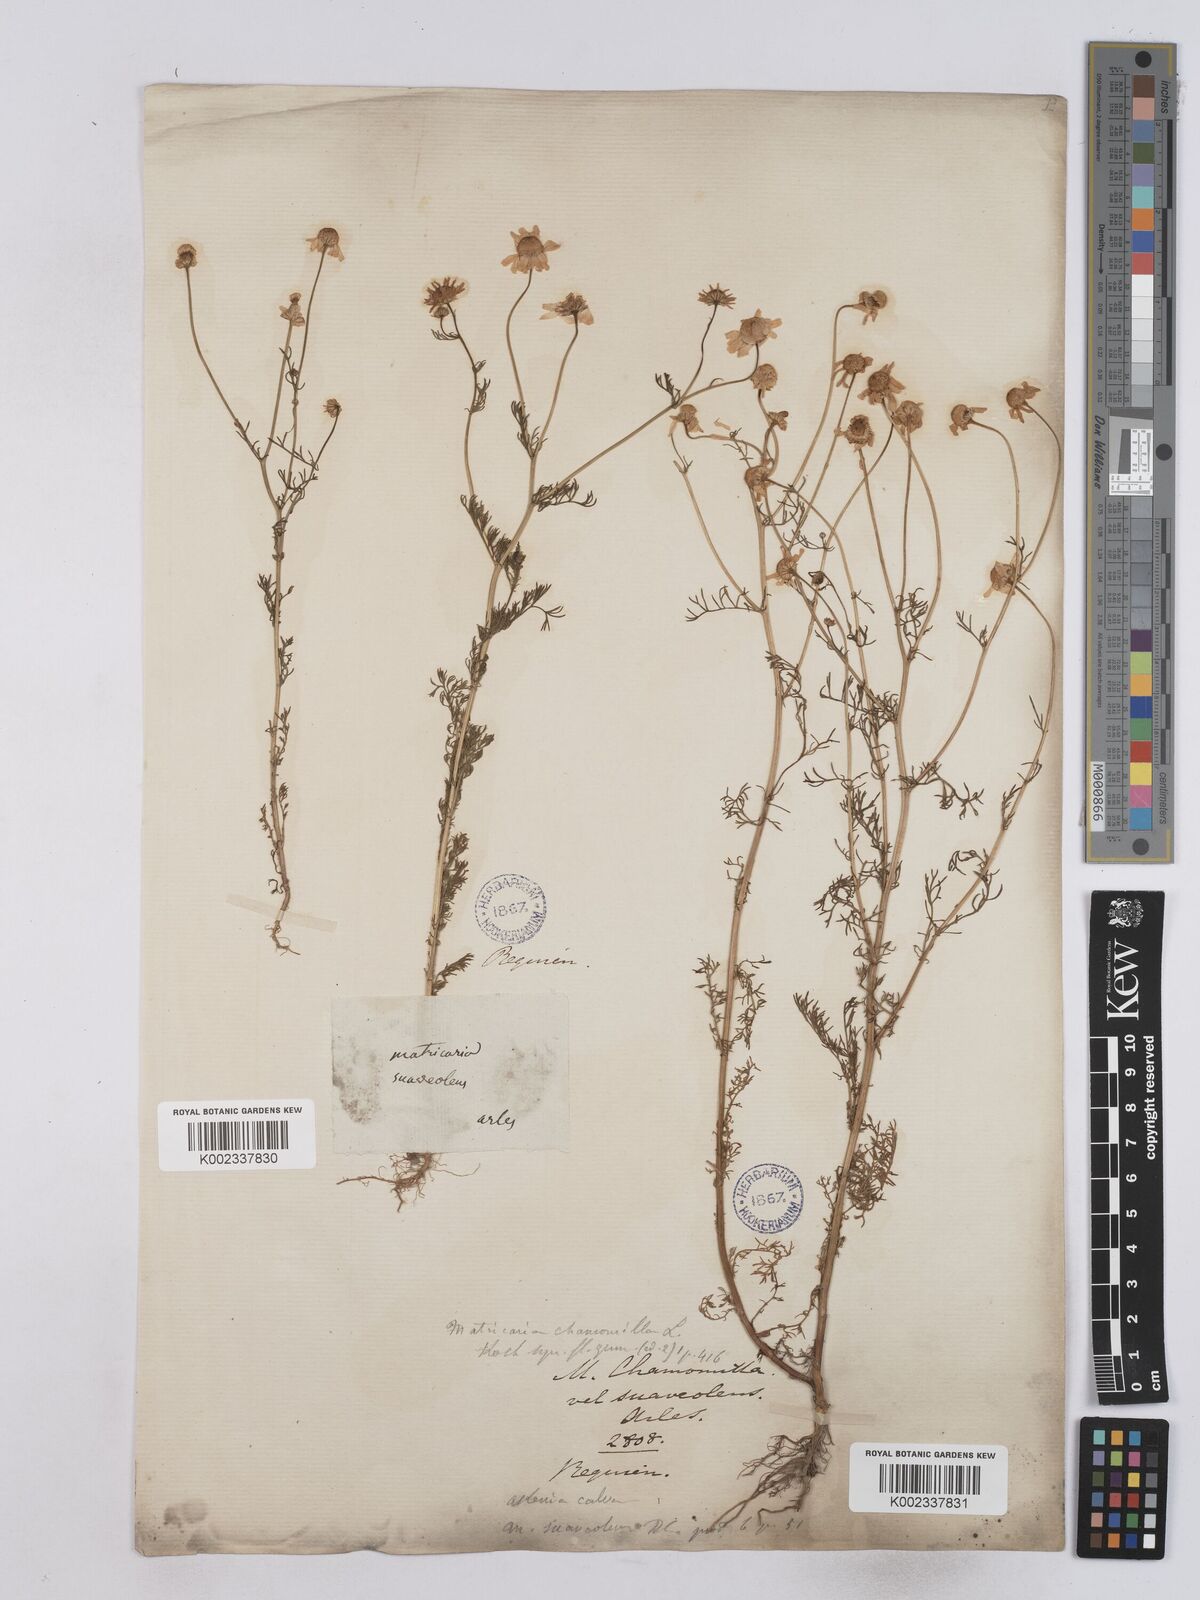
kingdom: Plantae
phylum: Tracheophyta
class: Magnoliopsida
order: Asterales
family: Asteraceae
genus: Matricaria
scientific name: Matricaria chamomilla
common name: Scented mayweed
